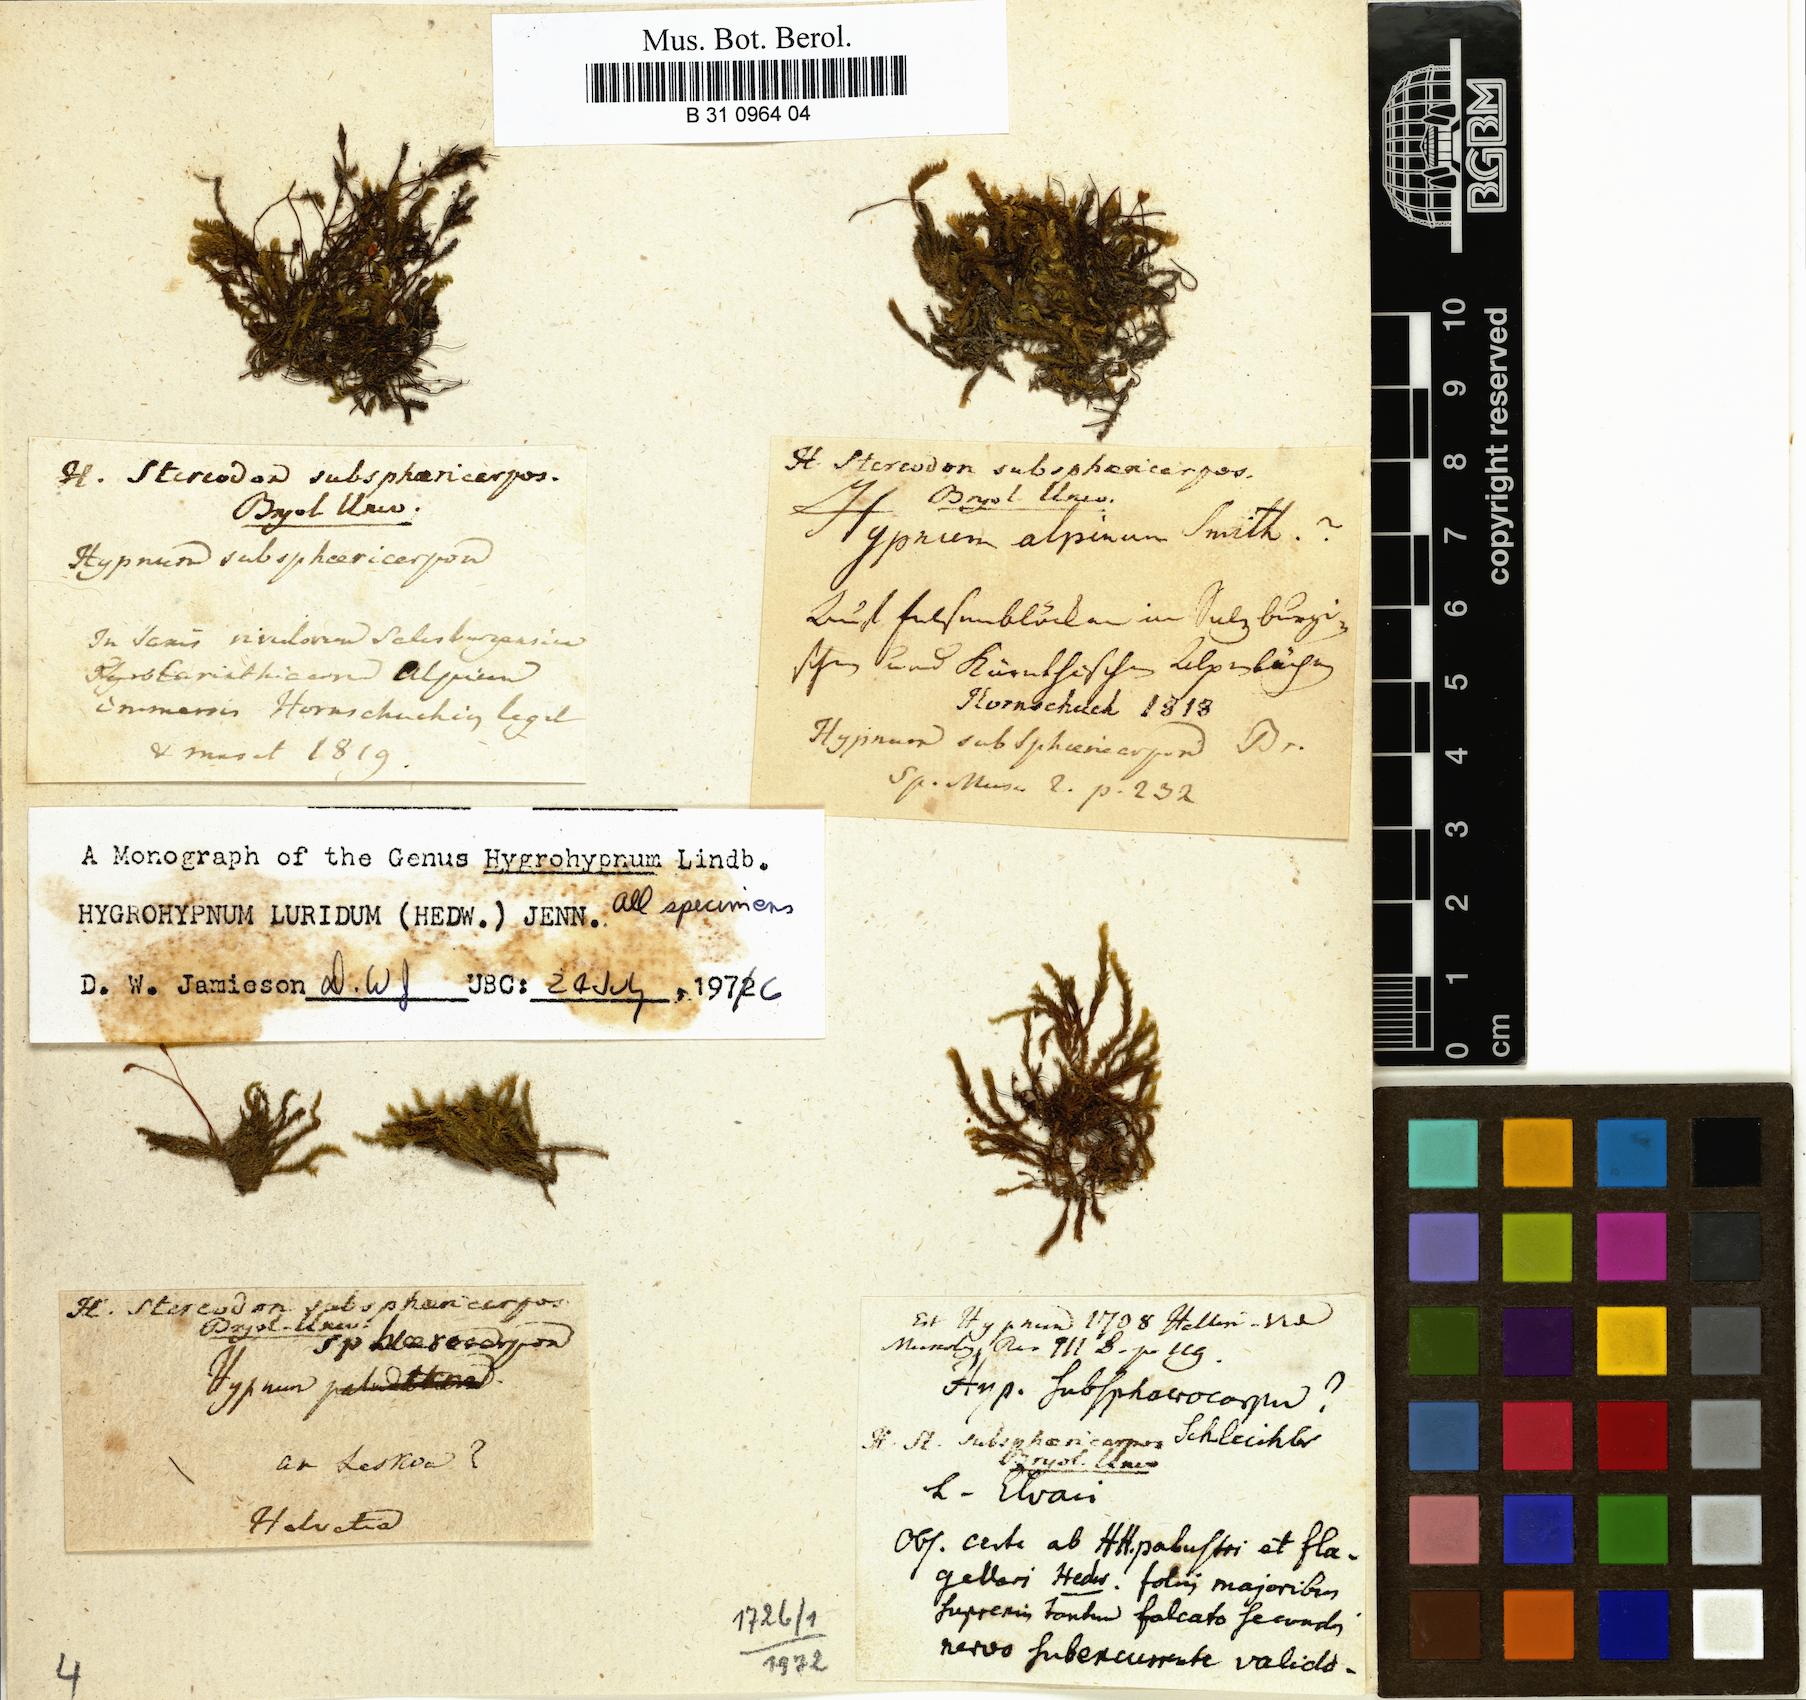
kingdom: Plantae
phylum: Bryophyta
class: Bryopsida
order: Hypnales
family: Stereodontaceae
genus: Stereodon
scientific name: Stereodon subsphaericarpus
